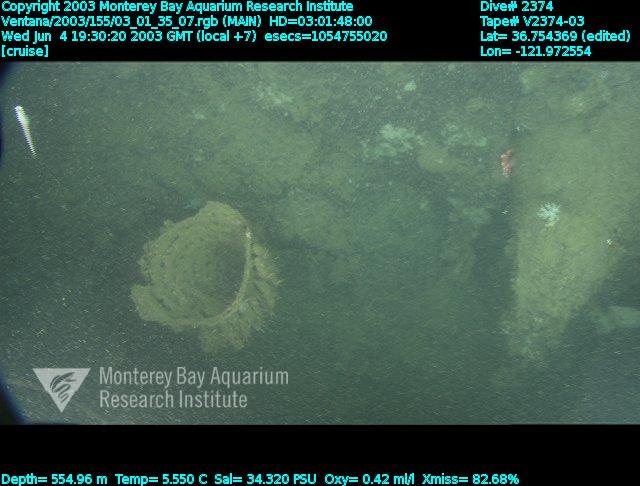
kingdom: Animalia
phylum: Porifera
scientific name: Porifera
